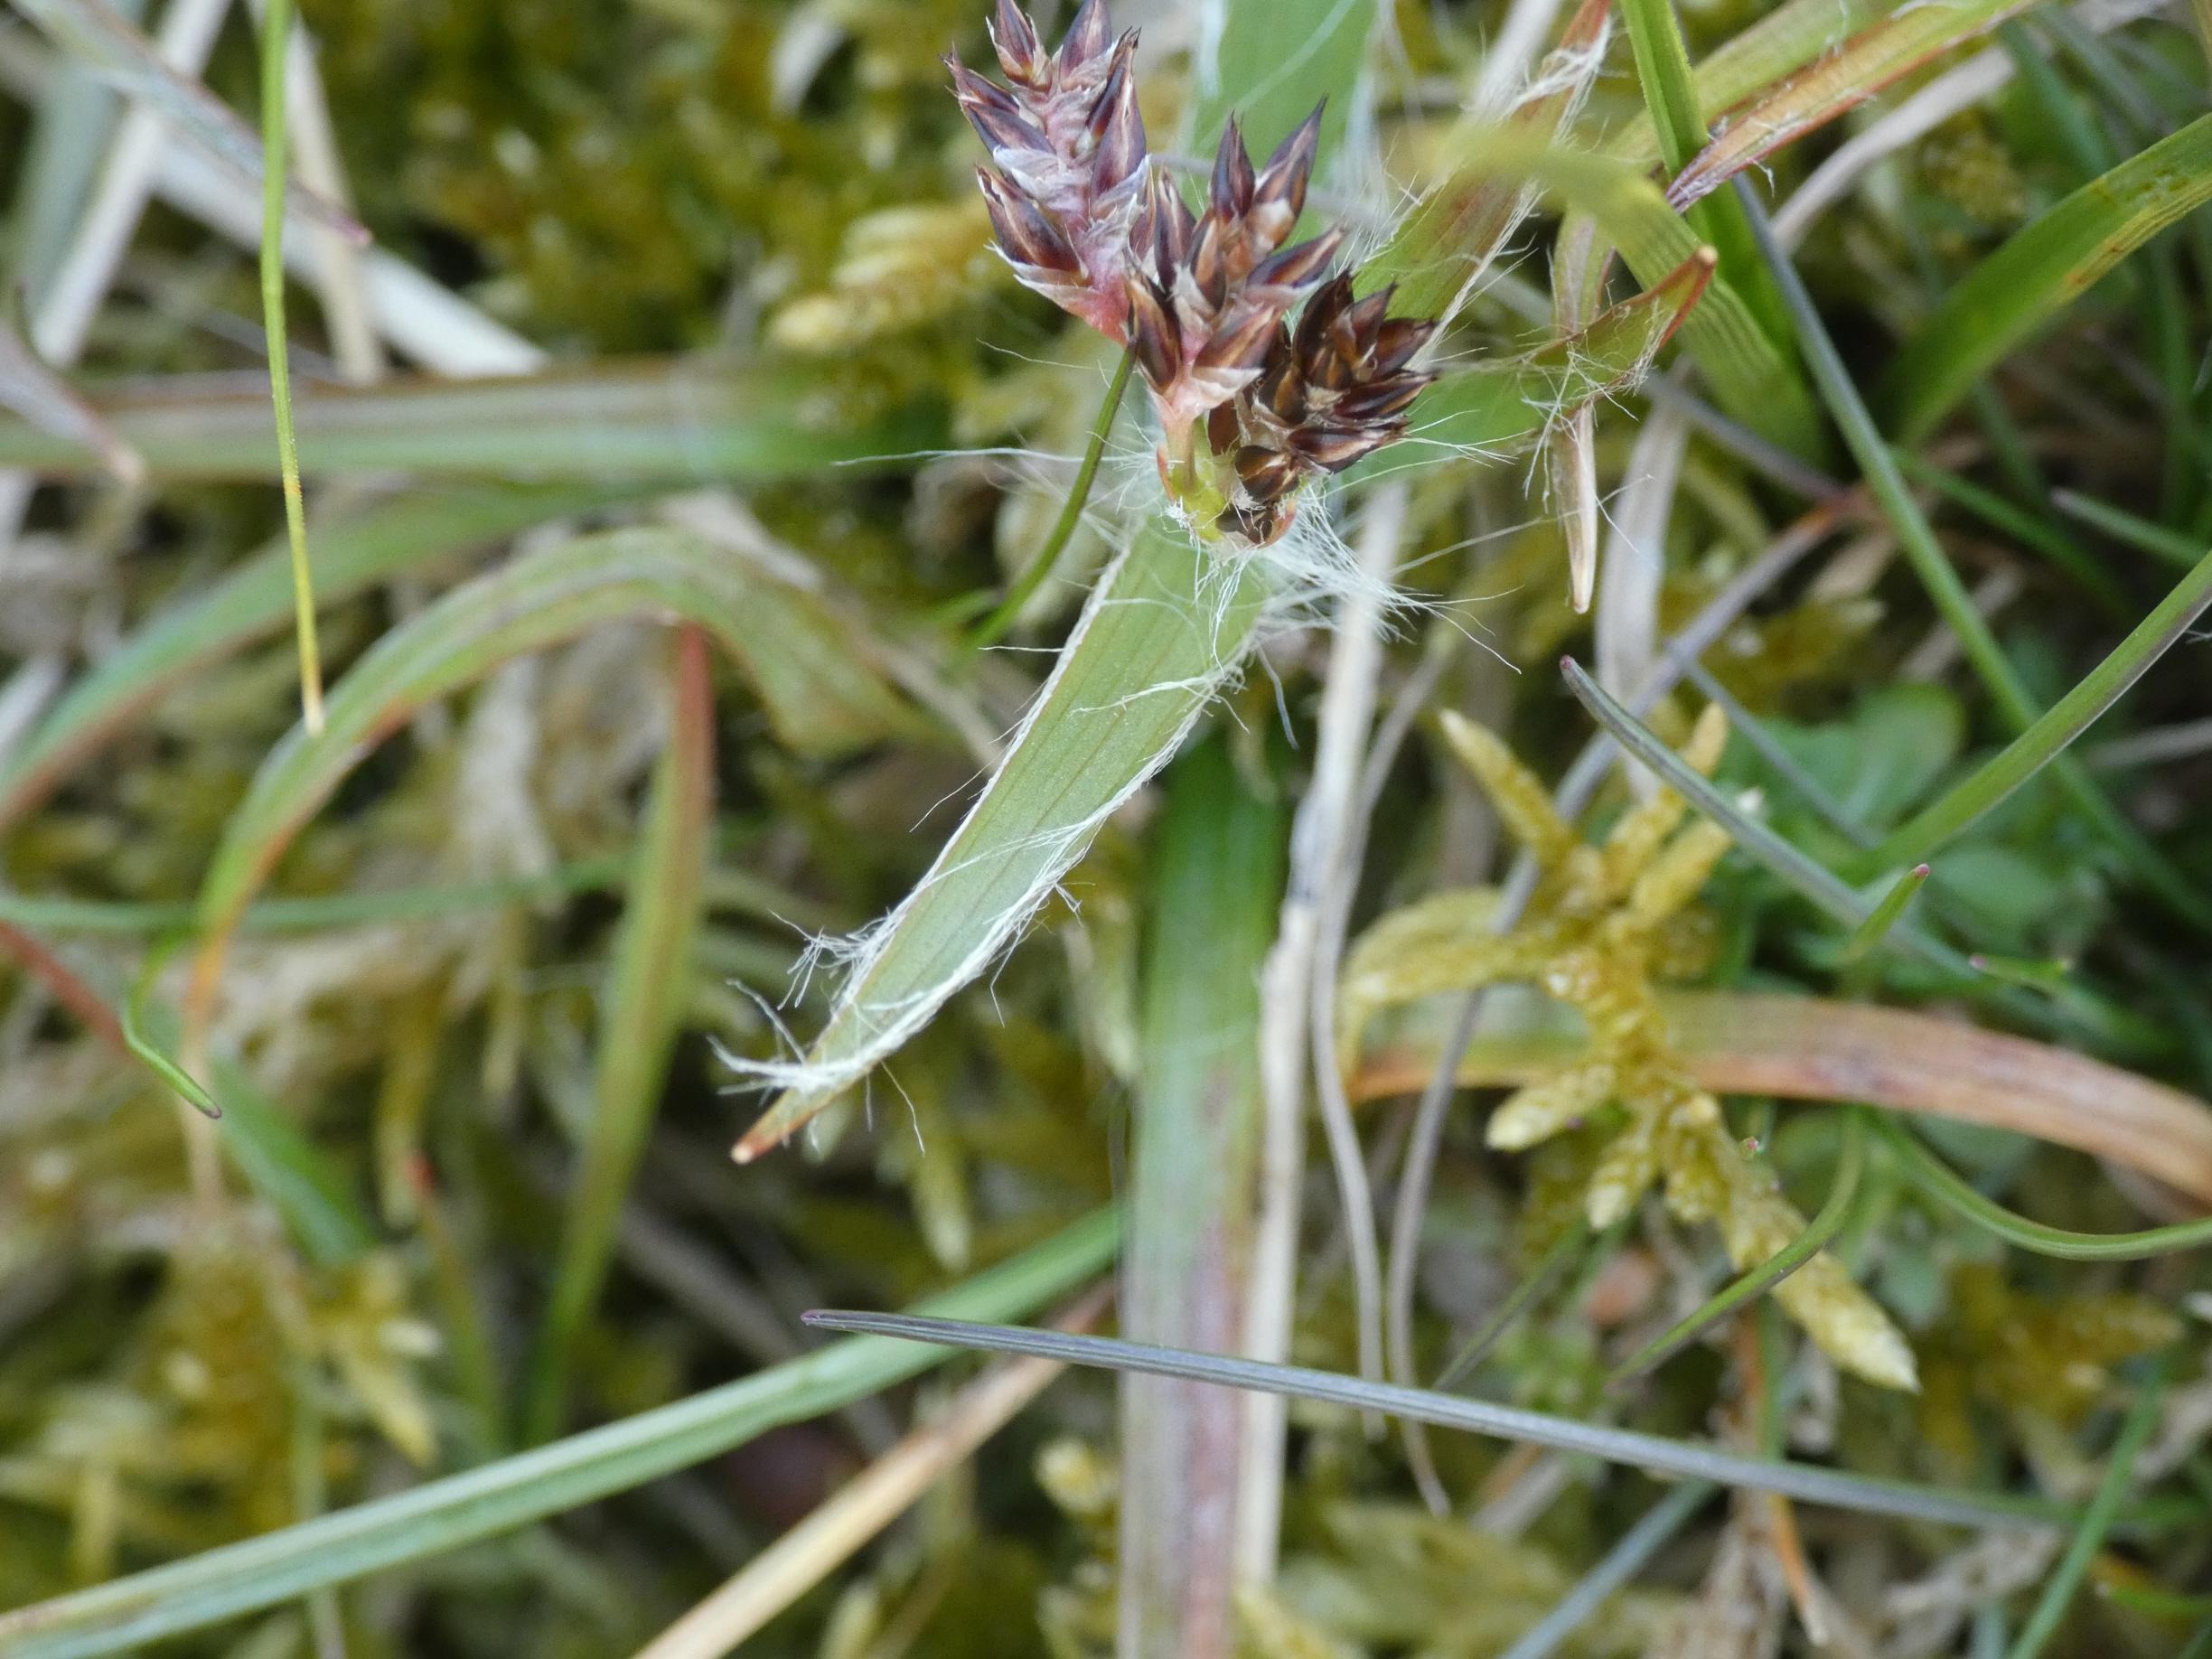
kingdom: Plantae
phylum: Tracheophyta
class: Liliopsida
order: Poales
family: Juncaceae
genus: Luzula
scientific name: Luzula campestris
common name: Mark-frytle
